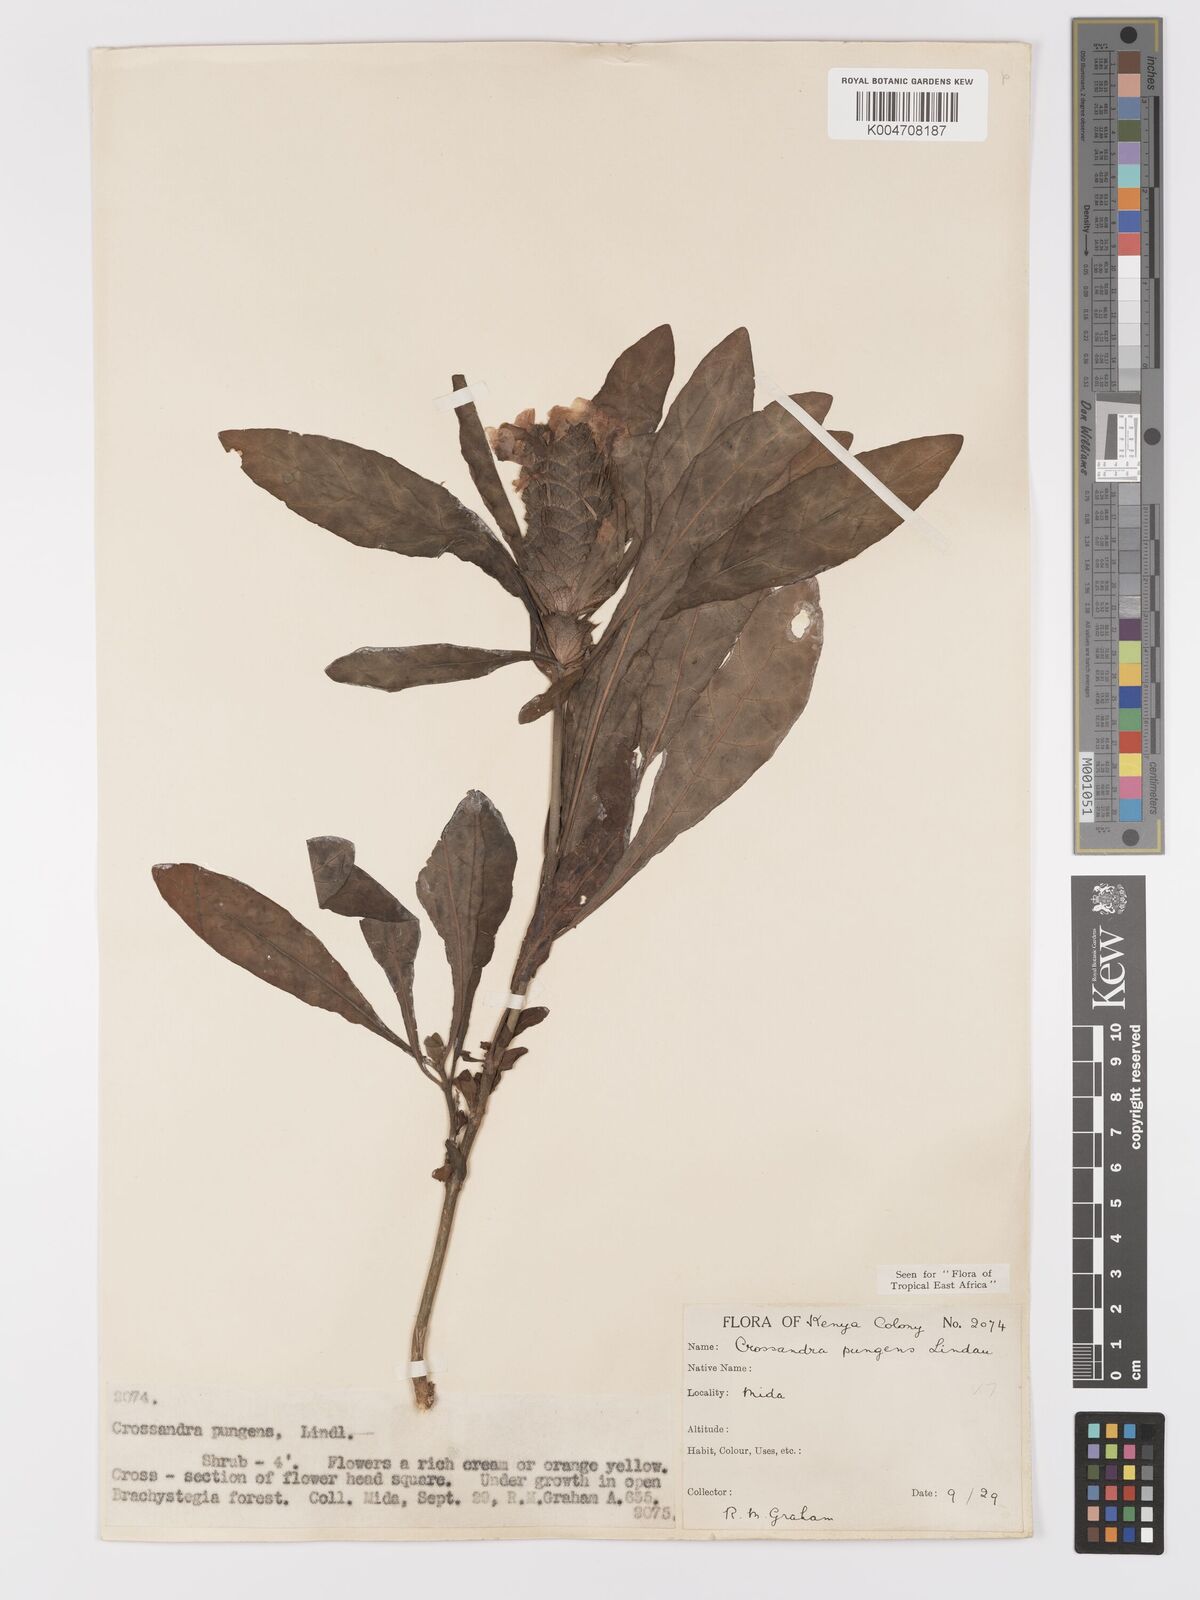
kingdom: Plantae
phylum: Tracheophyta
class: Magnoliopsida
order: Lamiales
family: Acanthaceae
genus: Crossandra
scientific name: Crossandra pungens
